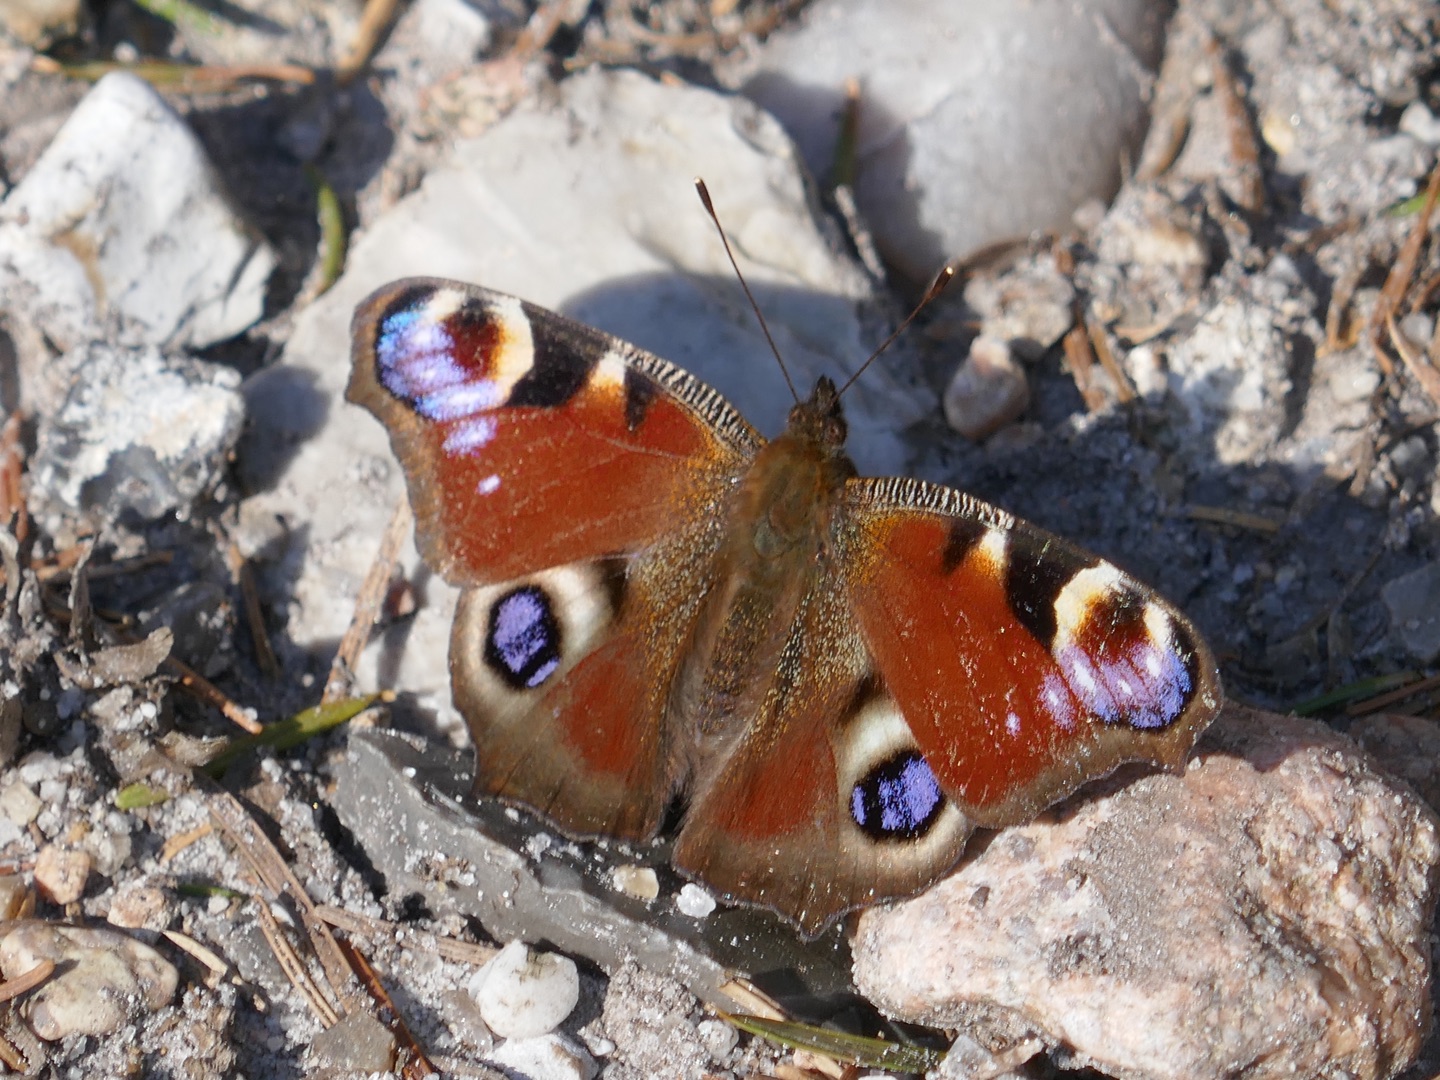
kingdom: Animalia
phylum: Arthropoda
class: Insecta
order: Lepidoptera
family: Nymphalidae
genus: Aglais
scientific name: Aglais io
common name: Dagpåfugleøje
